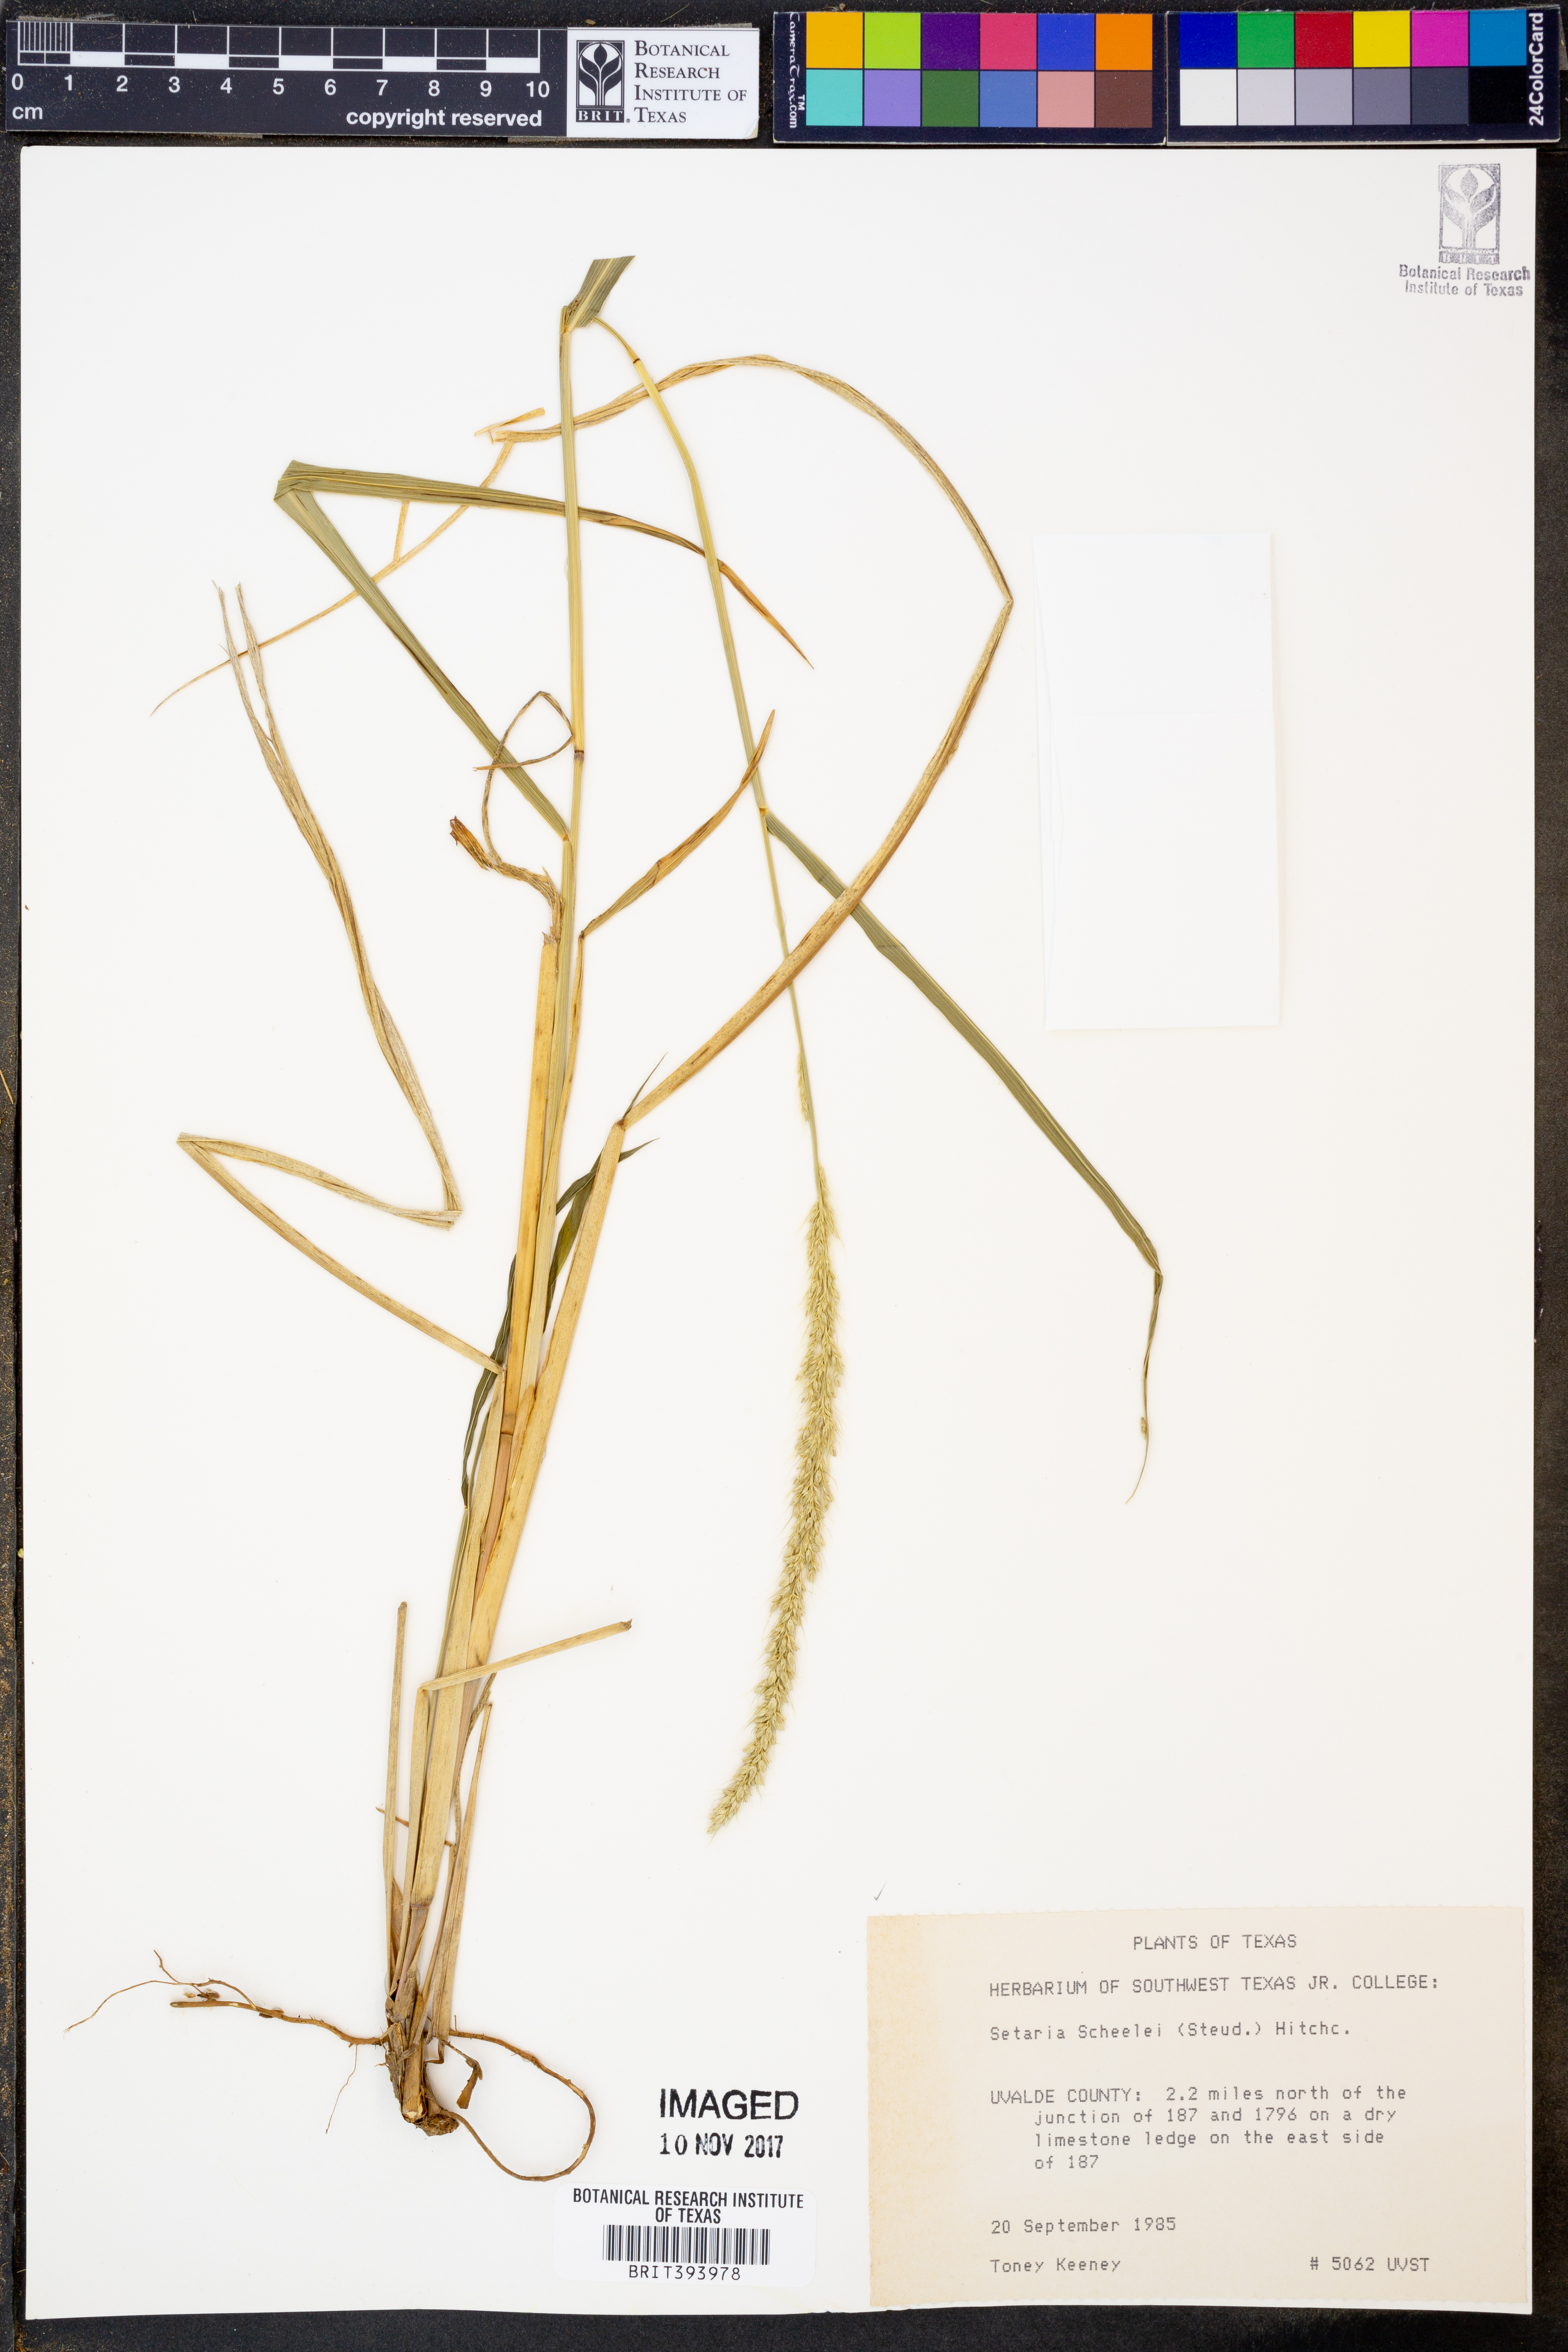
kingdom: Plantae
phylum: Tracheophyta
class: Liliopsida
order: Poales
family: Poaceae
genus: Setaria
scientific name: Setaria scheelei
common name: Southwestern bristle grass
